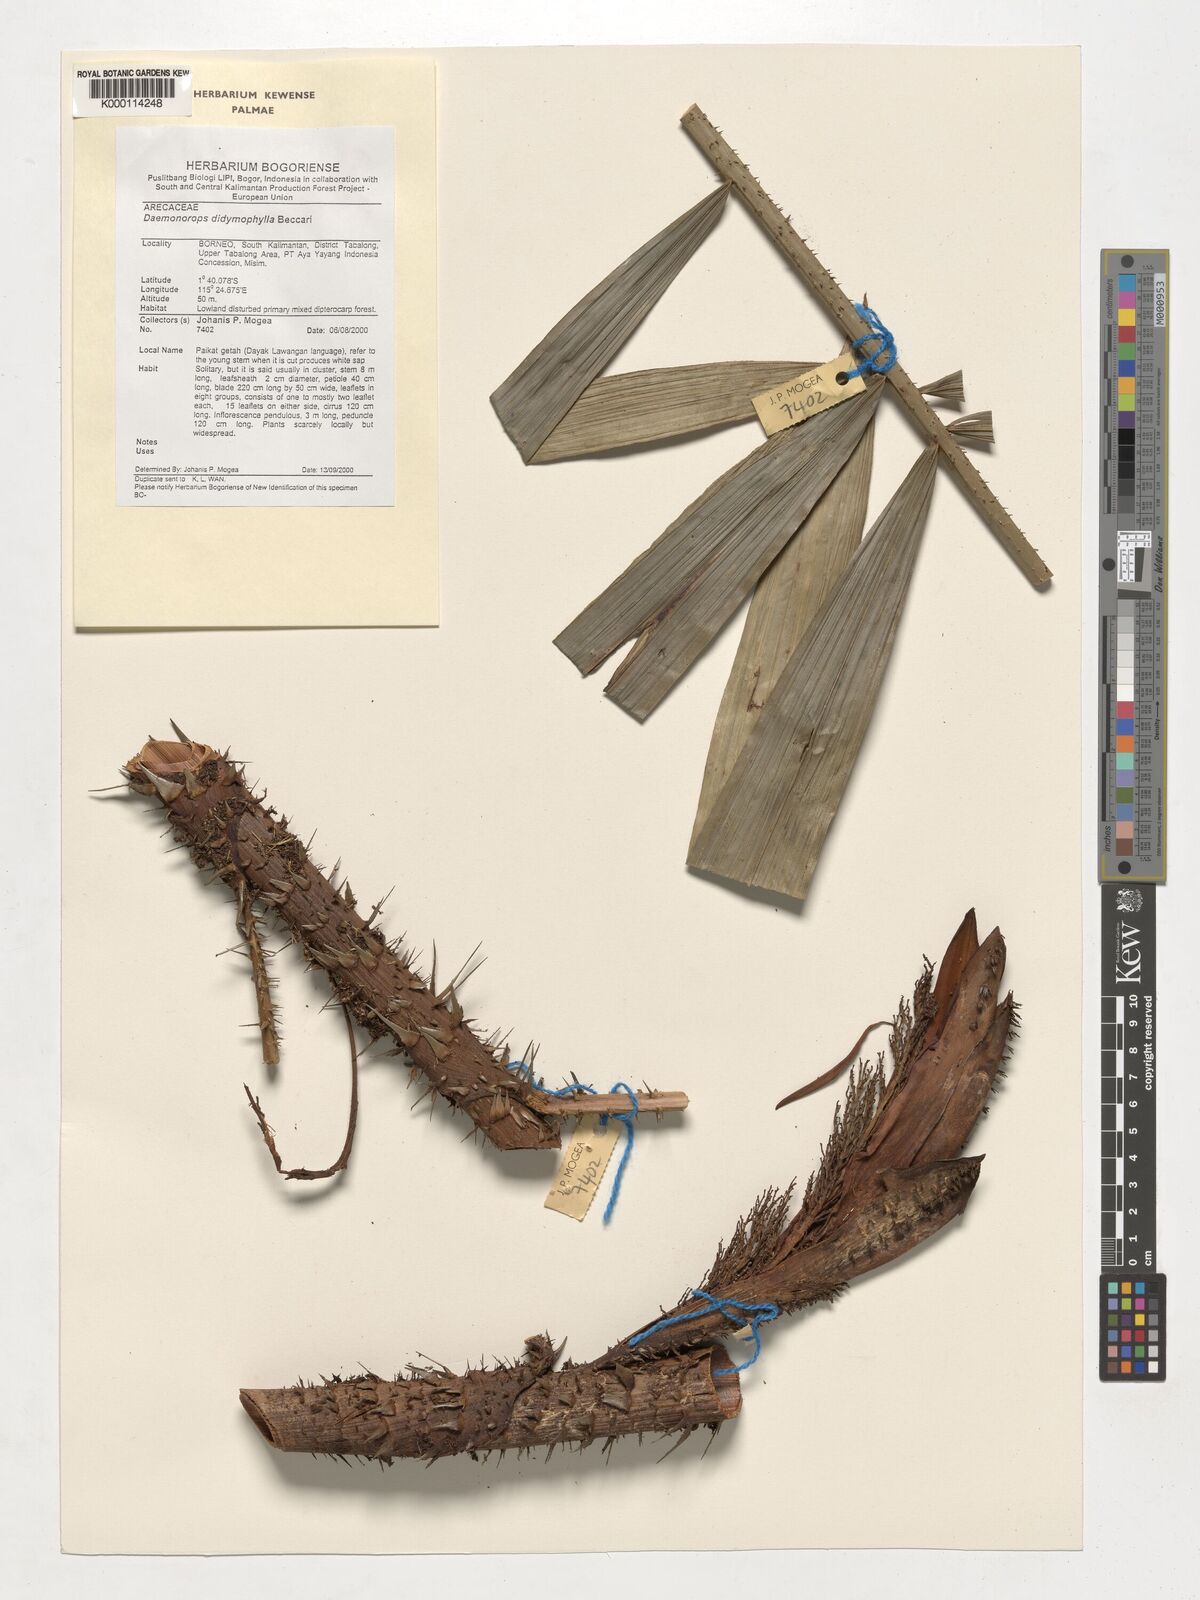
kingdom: Plantae
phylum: Tracheophyta
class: Liliopsida
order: Arecales
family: Arecaceae
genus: Calamus
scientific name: Calamus gracilipes
